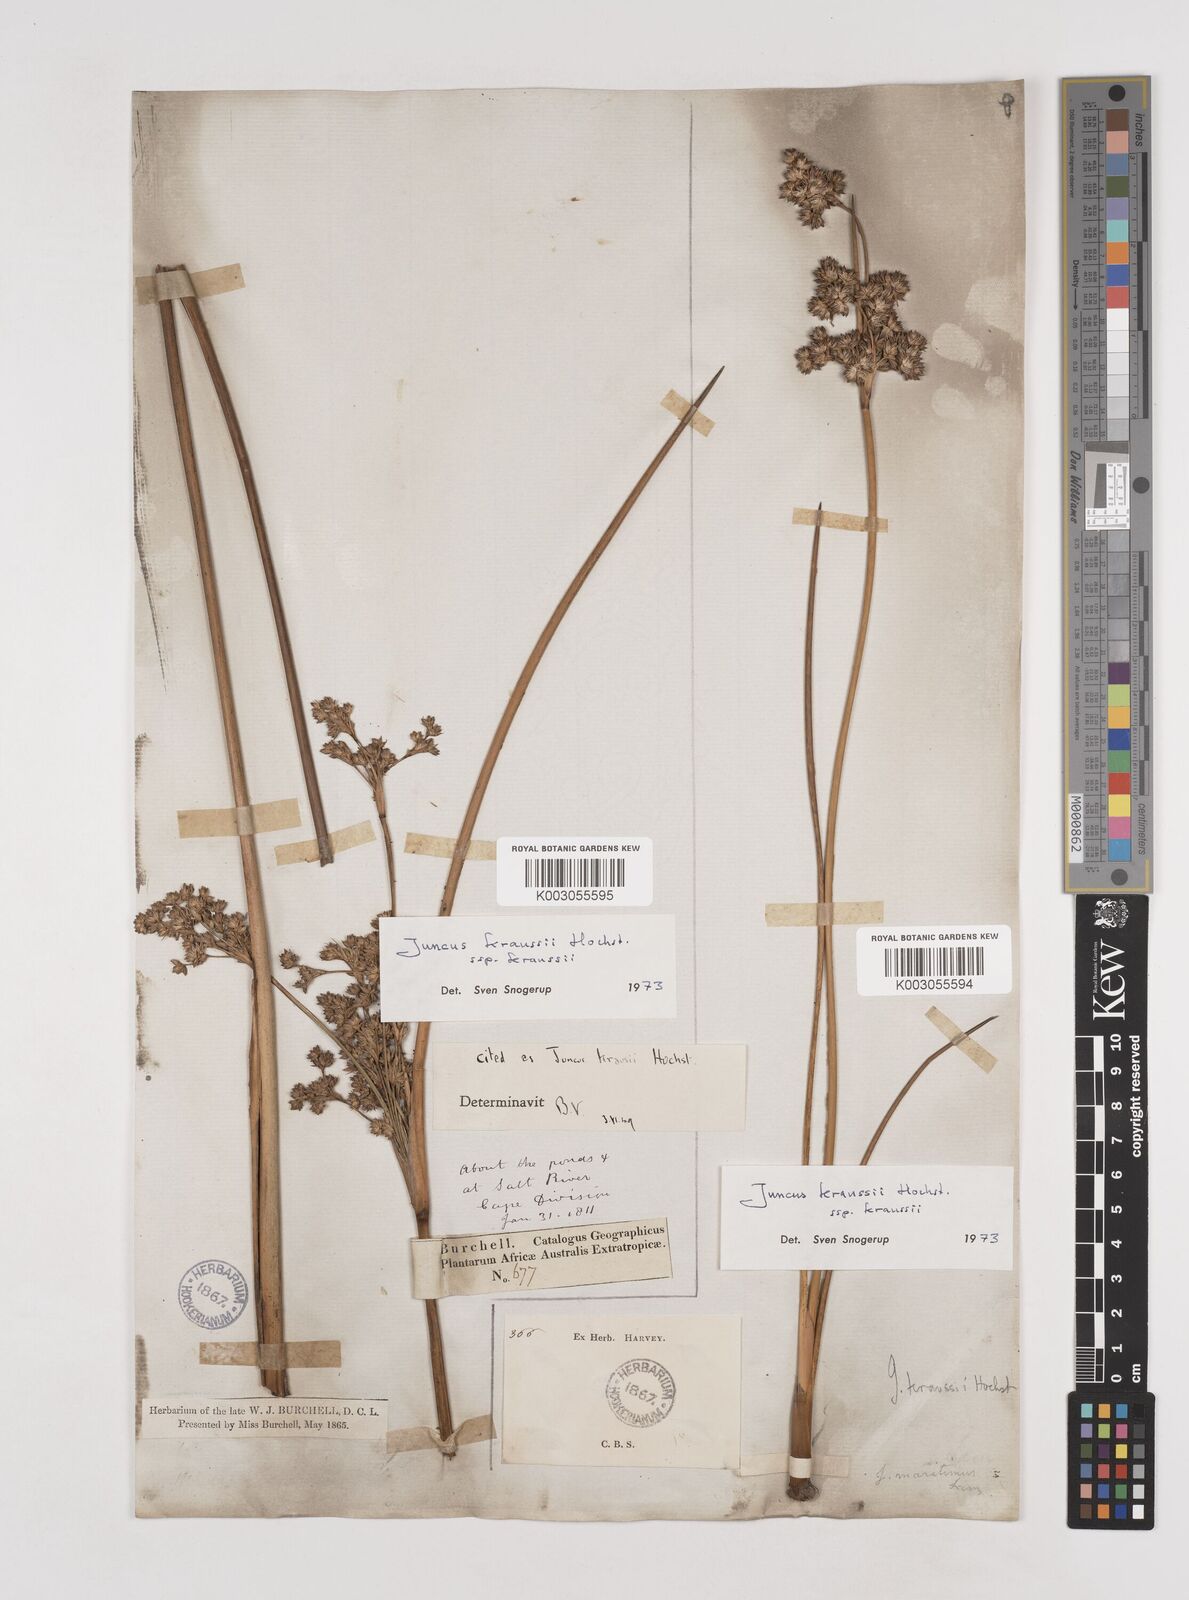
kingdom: Plantae
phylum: Tracheophyta
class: Liliopsida
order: Poales
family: Juncaceae
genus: Juncus
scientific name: Juncus kraussii
